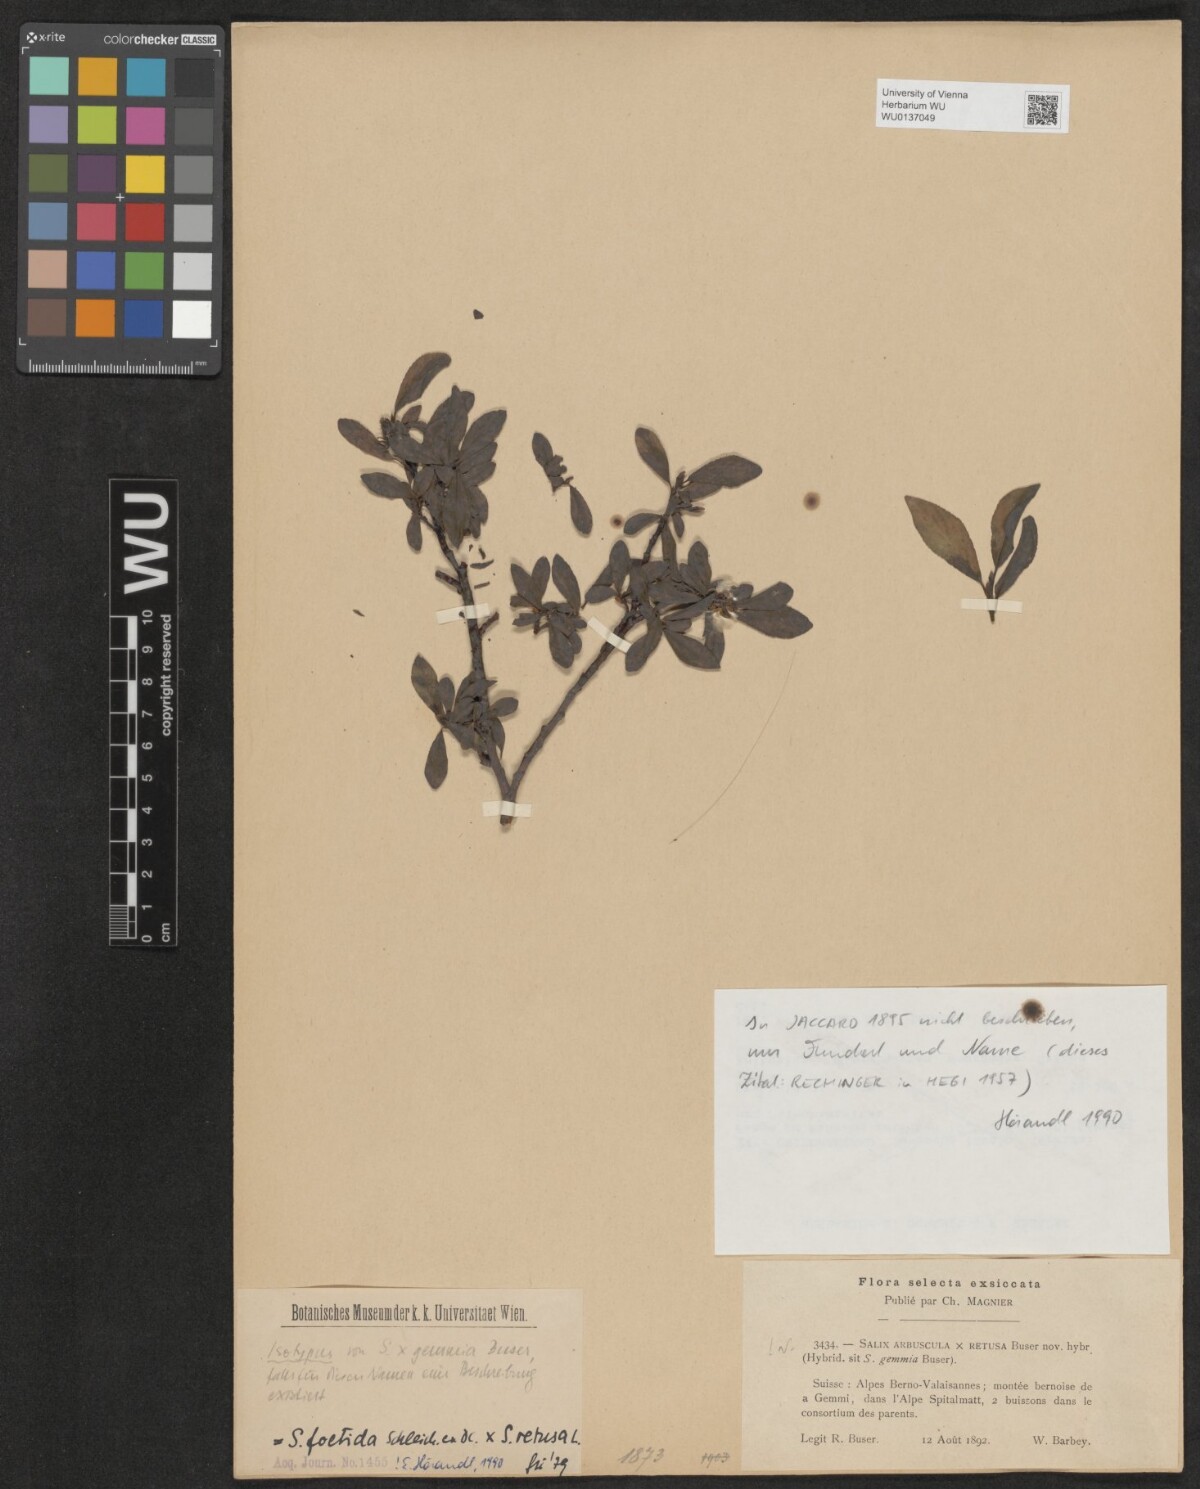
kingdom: Plantae
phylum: Tracheophyta
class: Magnoliopsida
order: Malpighiales
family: Salicaceae
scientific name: Salicaceae
